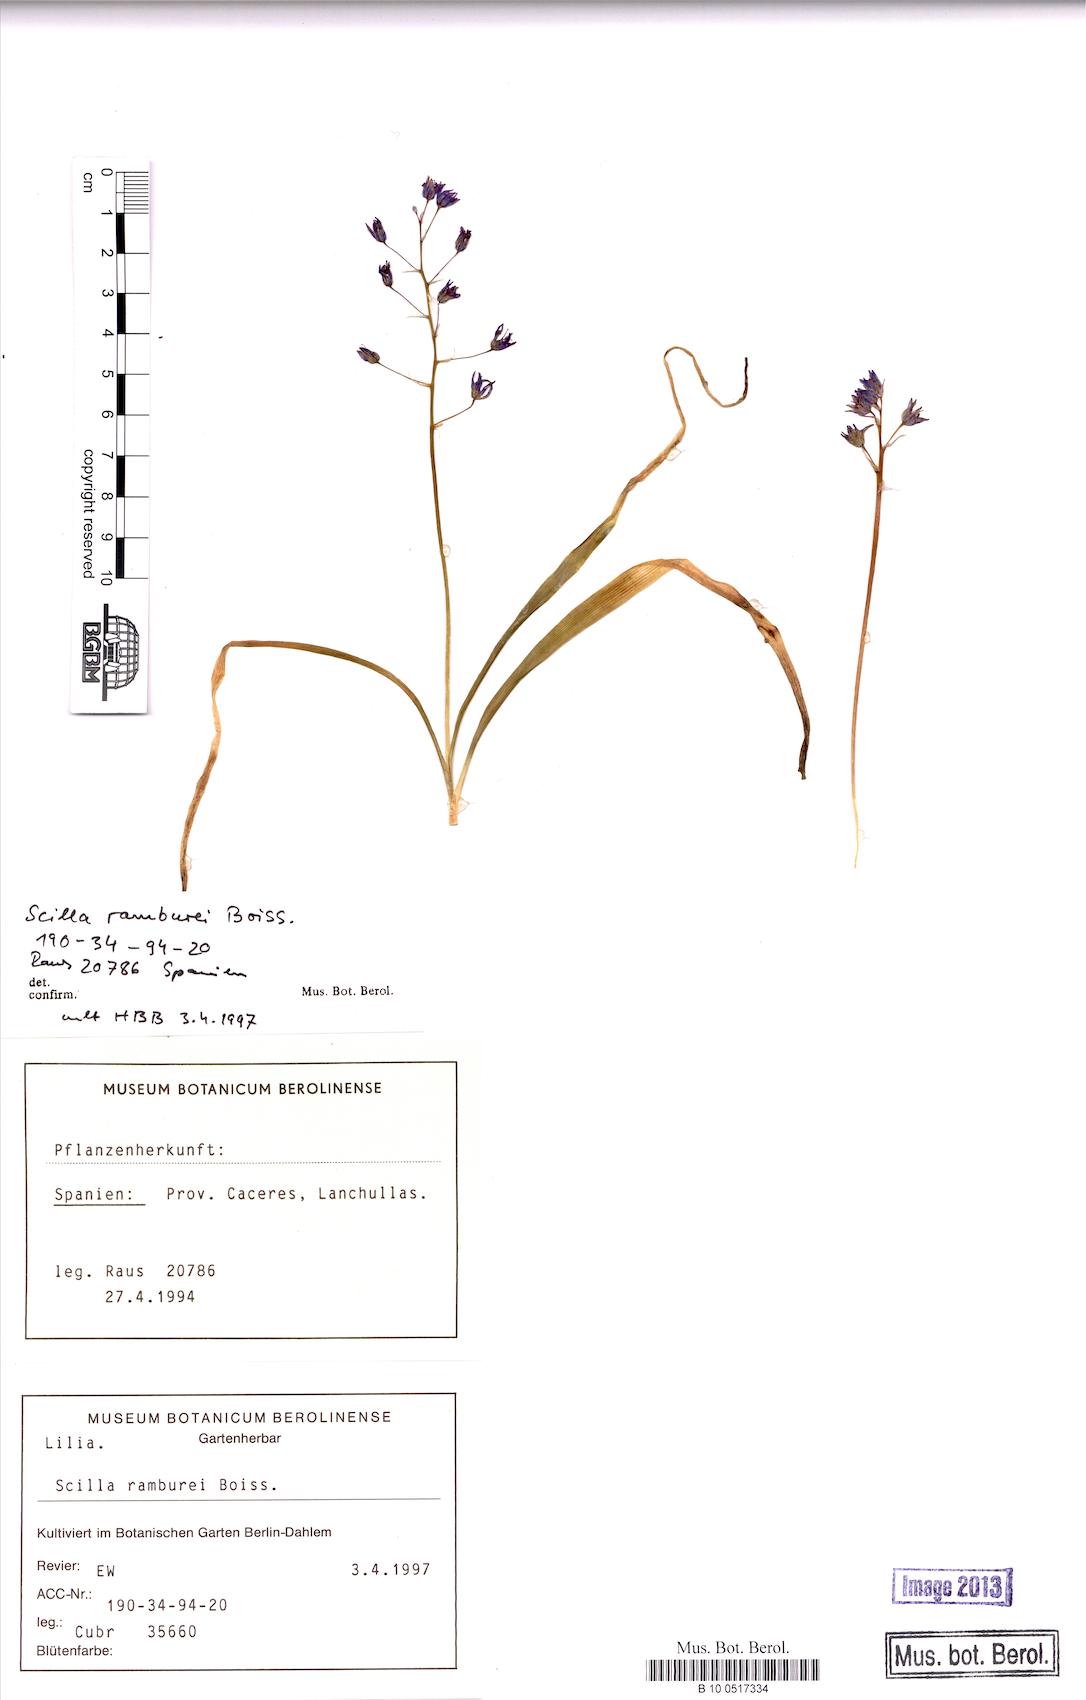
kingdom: Plantae
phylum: Tracheophyta
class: Liliopsida
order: Asparagales
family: Asparagaceae
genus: Scilla
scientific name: Scilla
